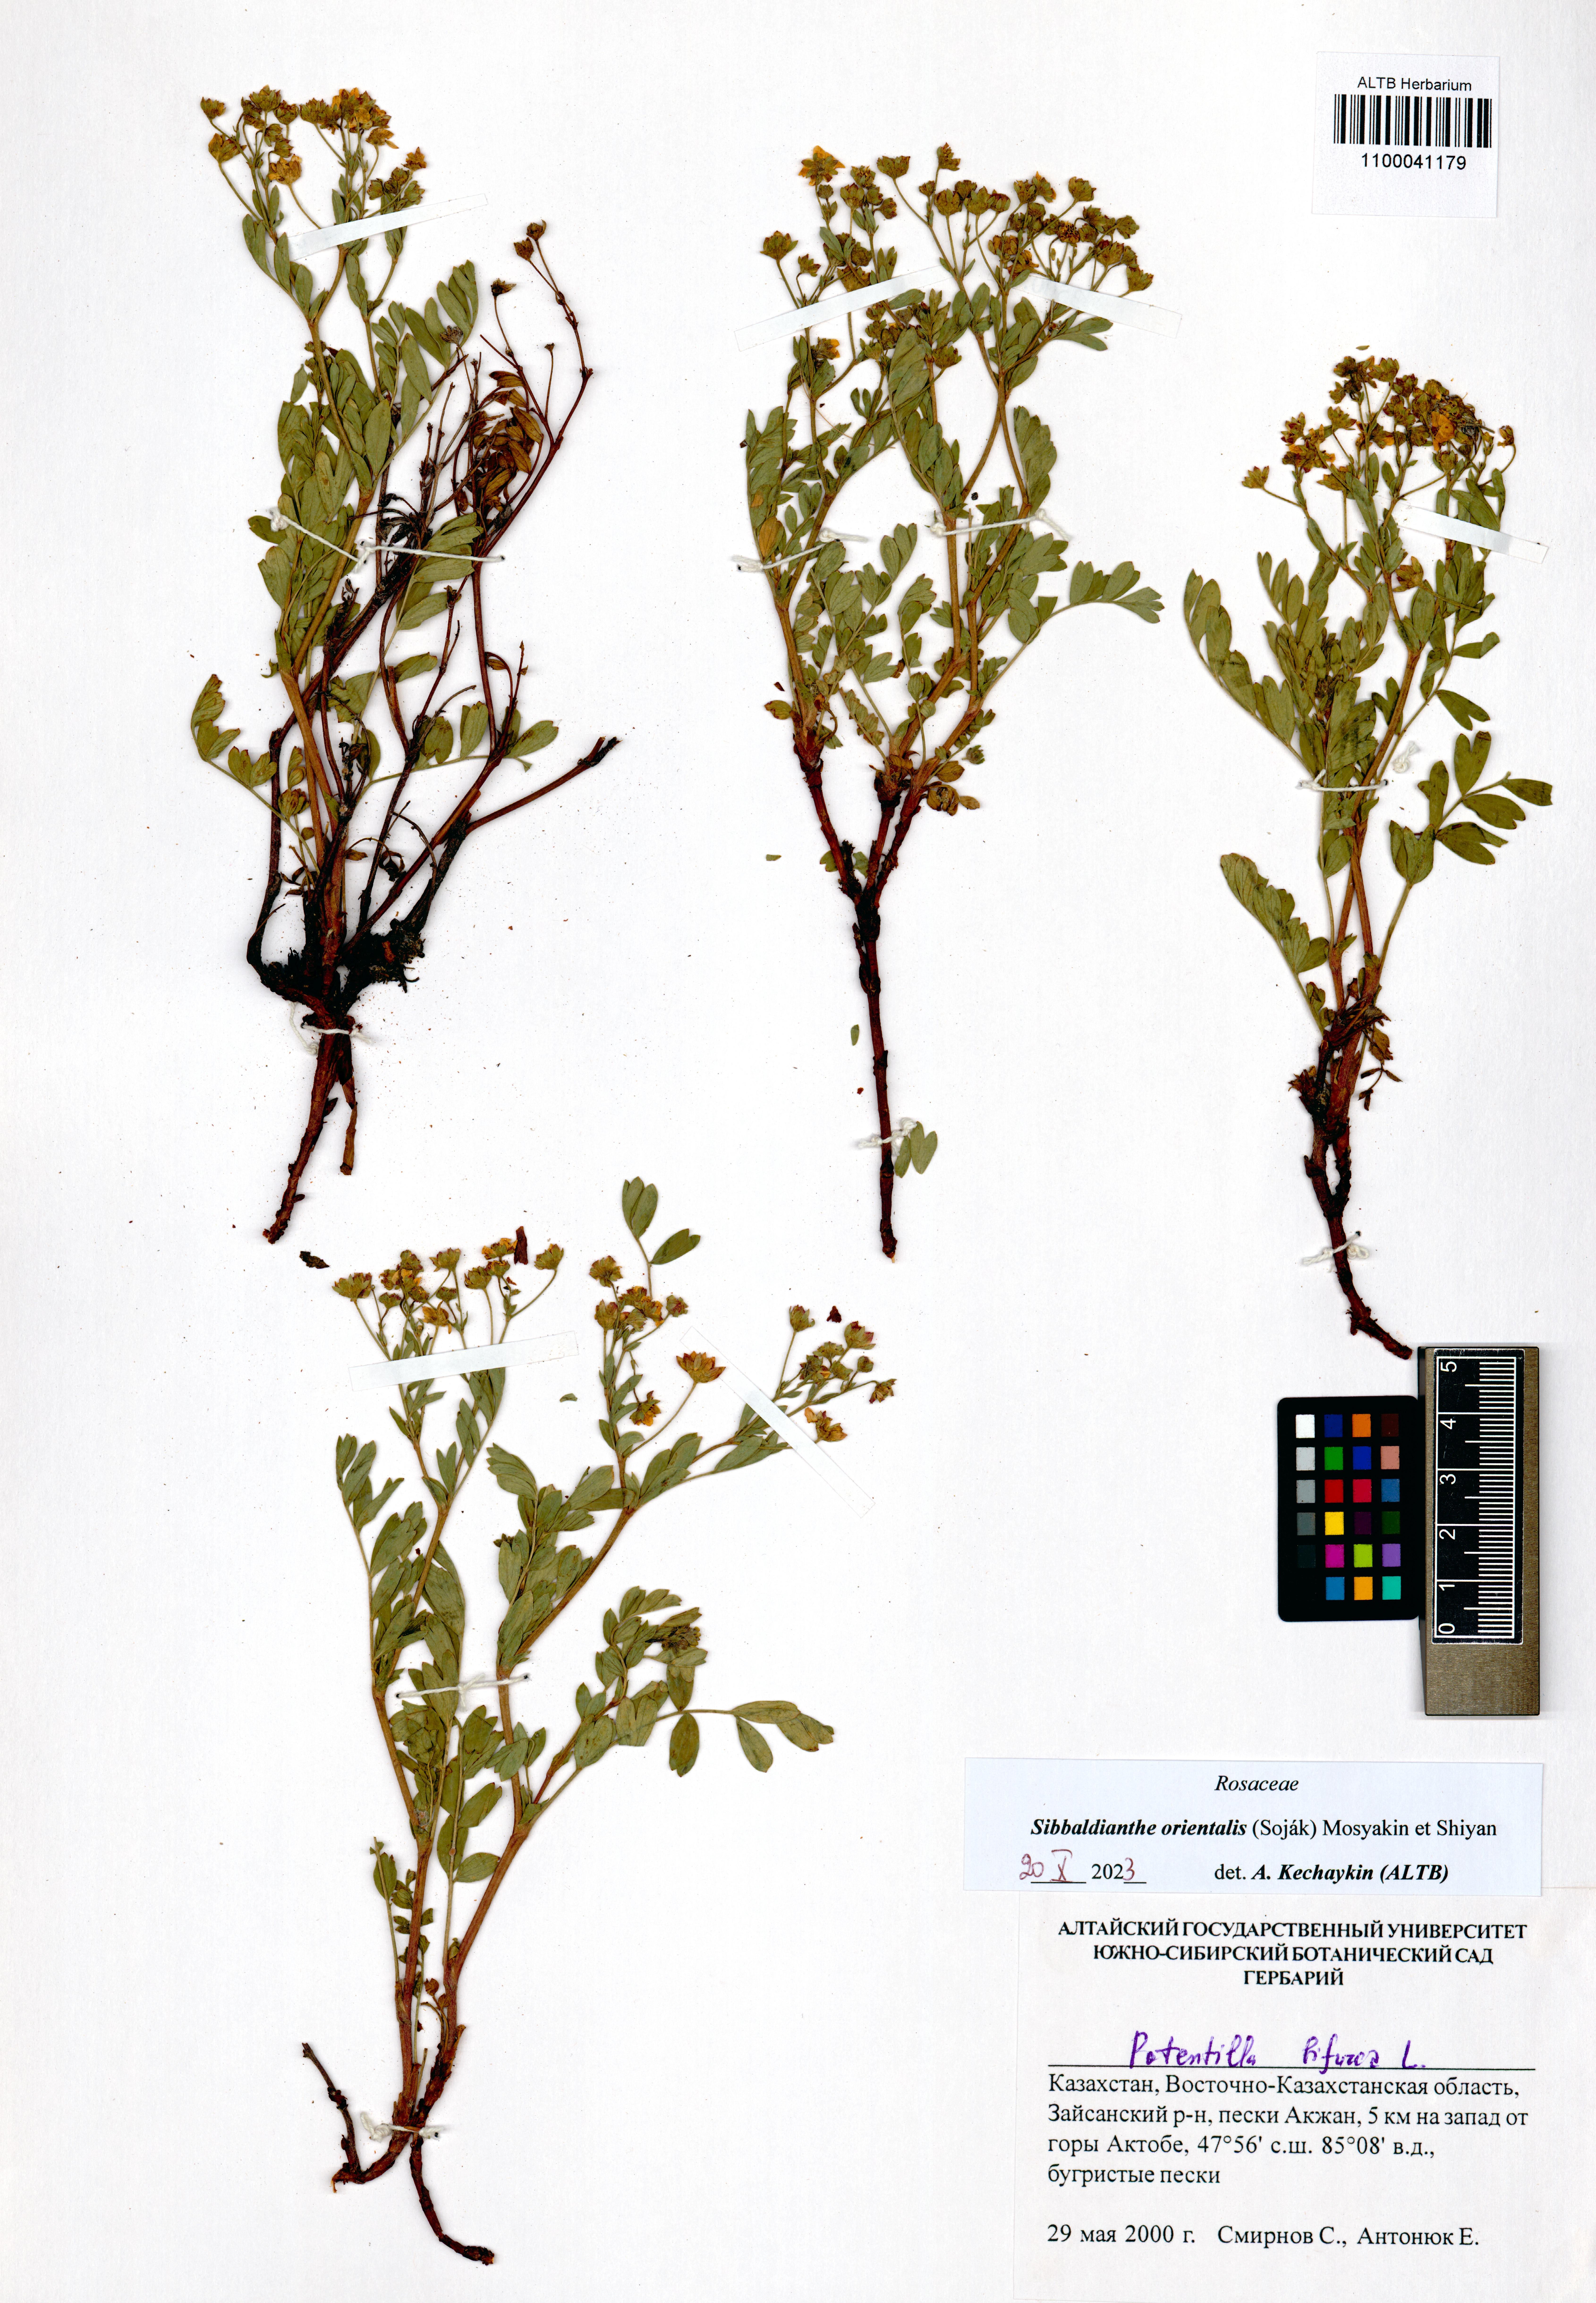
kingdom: Plantae
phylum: Tracheophyta
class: Magnoliopsida
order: Rosales
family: Rosaceae
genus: Sibbaldianthe
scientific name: Sibbaldianthe orientalis
